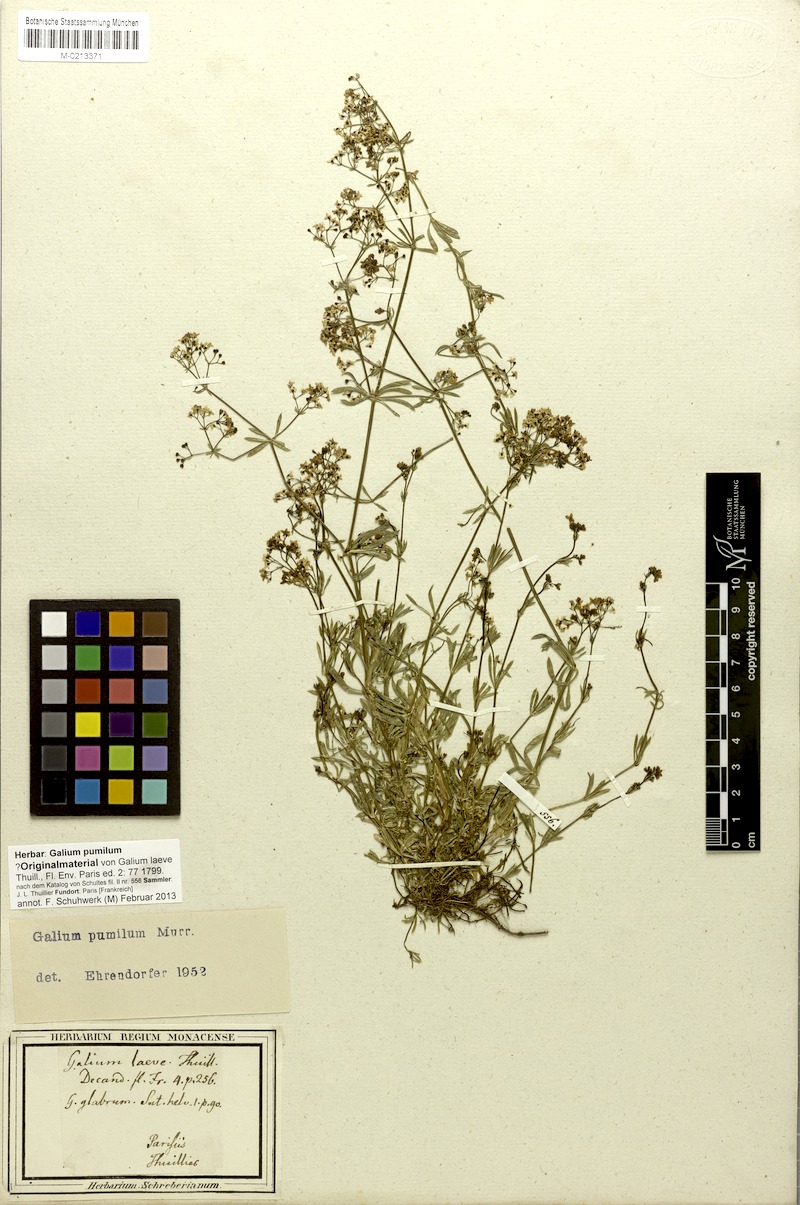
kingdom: Plantae
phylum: Tracheophyta
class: Magnoliopsida
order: Gentianales
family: Rubiaceae
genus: Galium
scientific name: Galium pumilum
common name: Slender bedstraw
